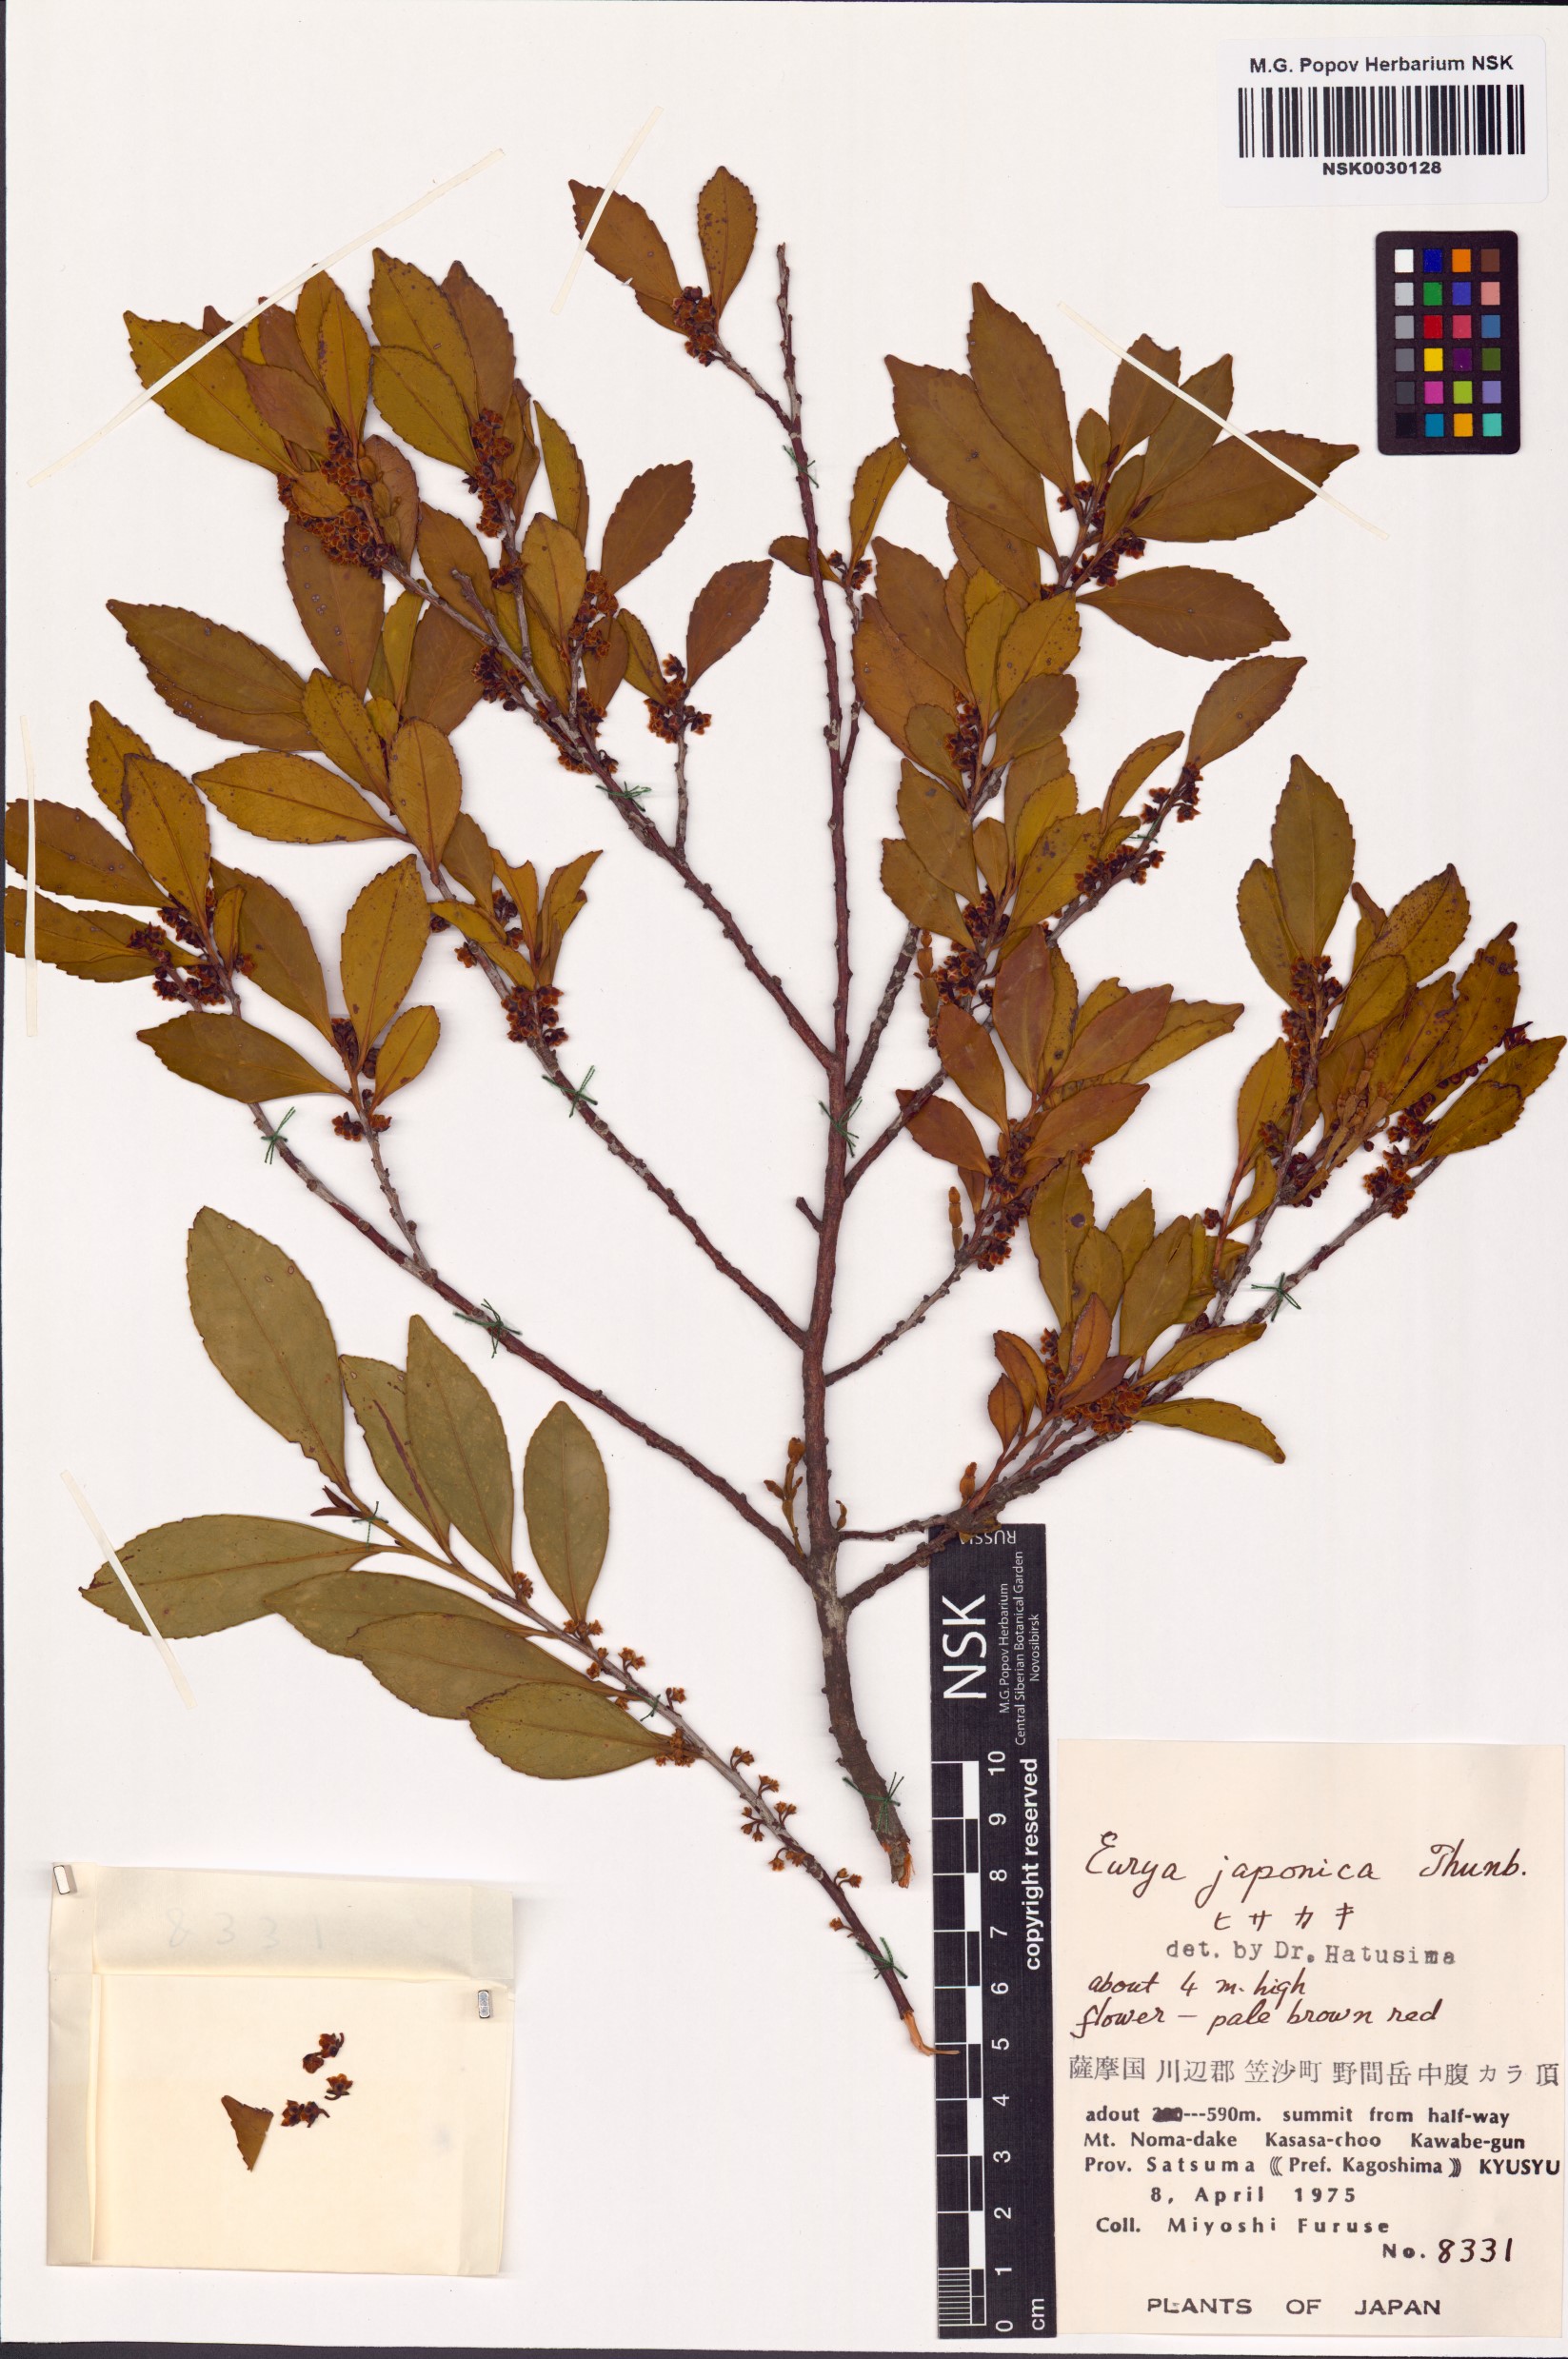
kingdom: Plantae
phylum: Tracheophyta
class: Magnoliopsida
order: Ericales
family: Pentaphylacaceae
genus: Eurya
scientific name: Eurya japonica
